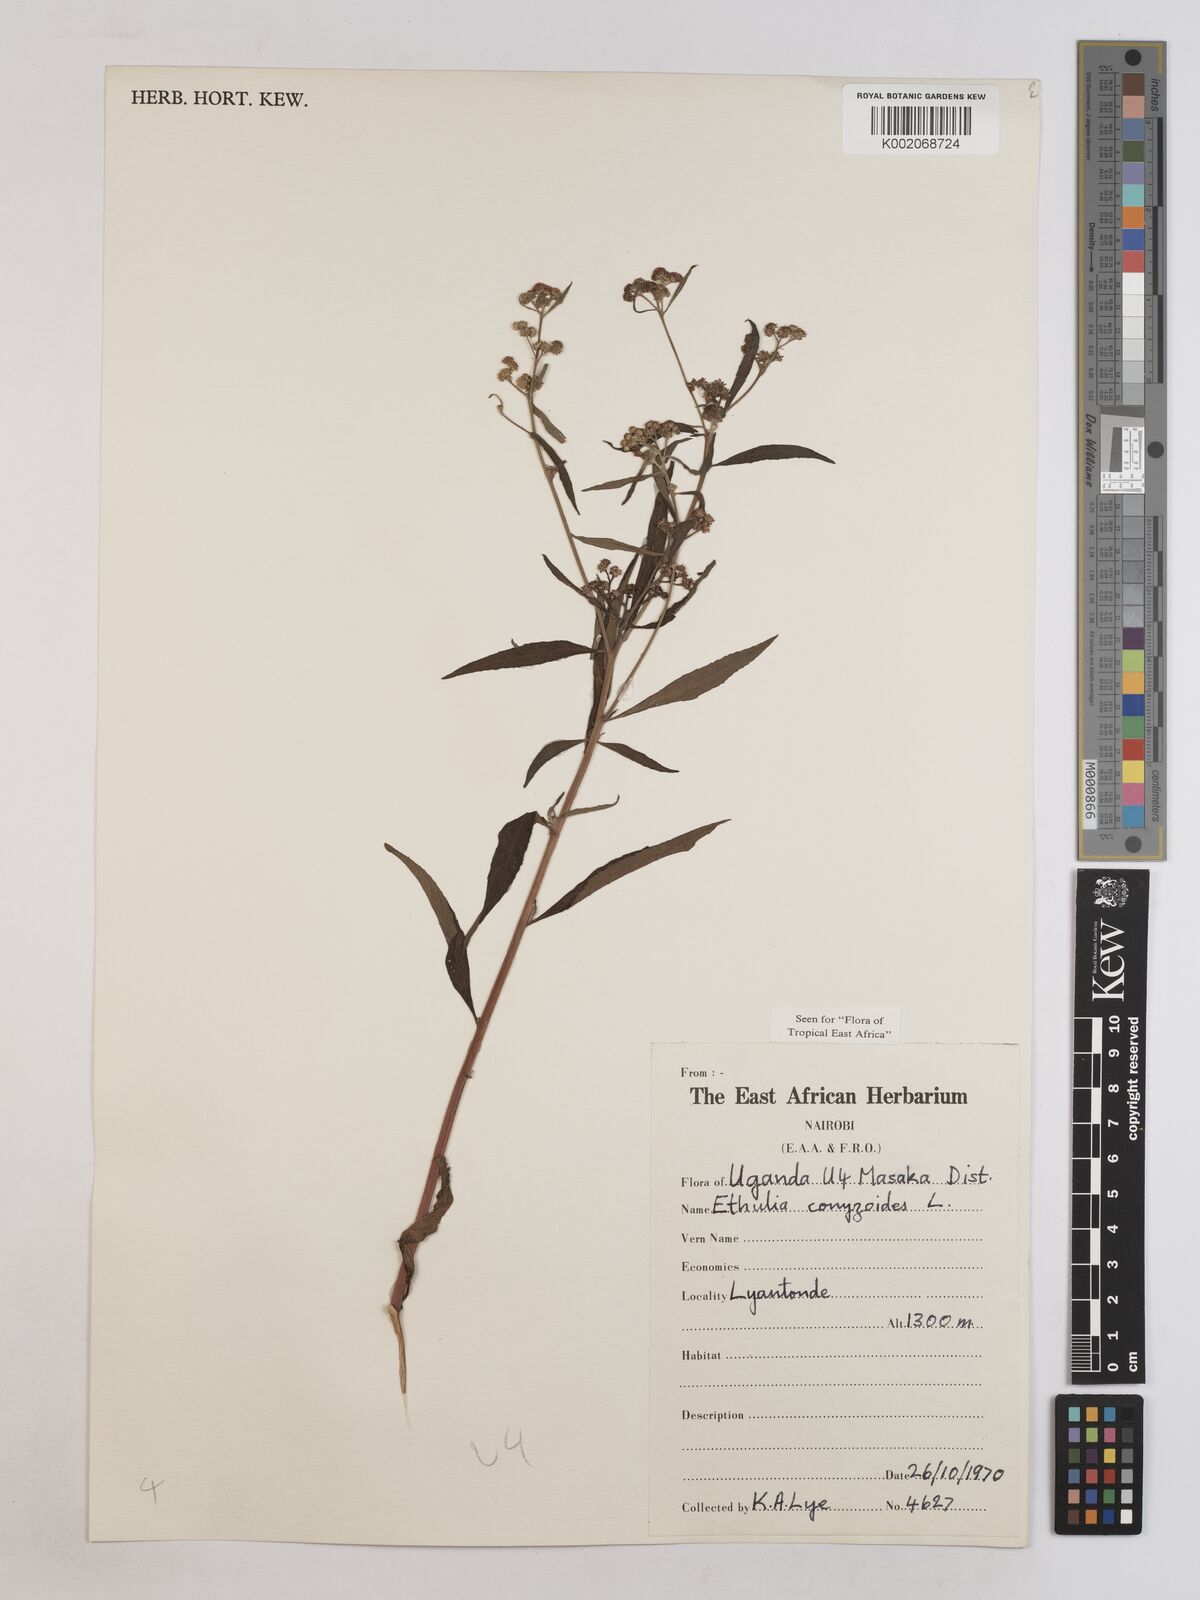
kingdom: Plantae
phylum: Tracheophyta
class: Magnoliopsida
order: Asterales
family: Asteraceae
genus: Ethulia
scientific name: Ethulia conyzoides
